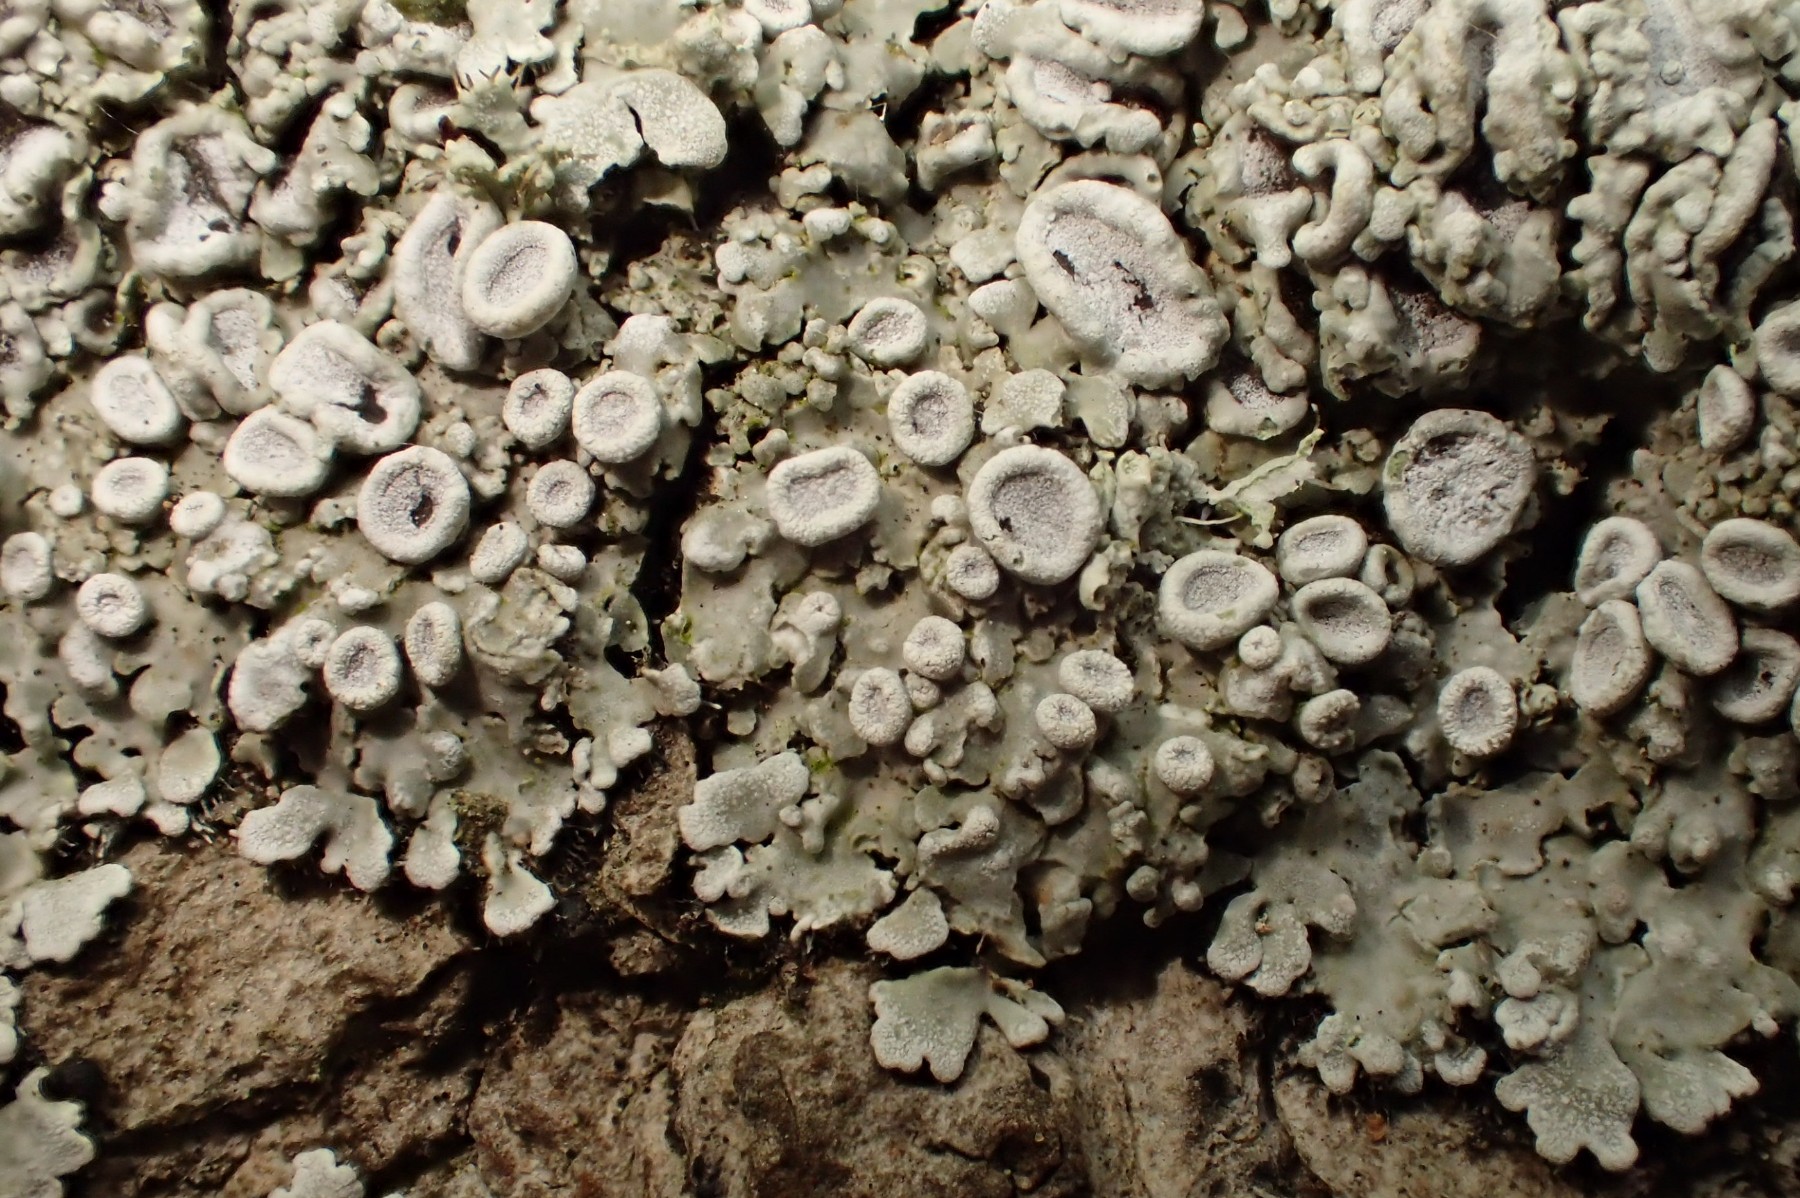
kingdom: Fungi
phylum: Ascomycota
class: Lecanoromycetes
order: Caliciales
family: Physciaceae
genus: Physconia
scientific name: Physconia distorta
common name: pudret dugrosetlav
